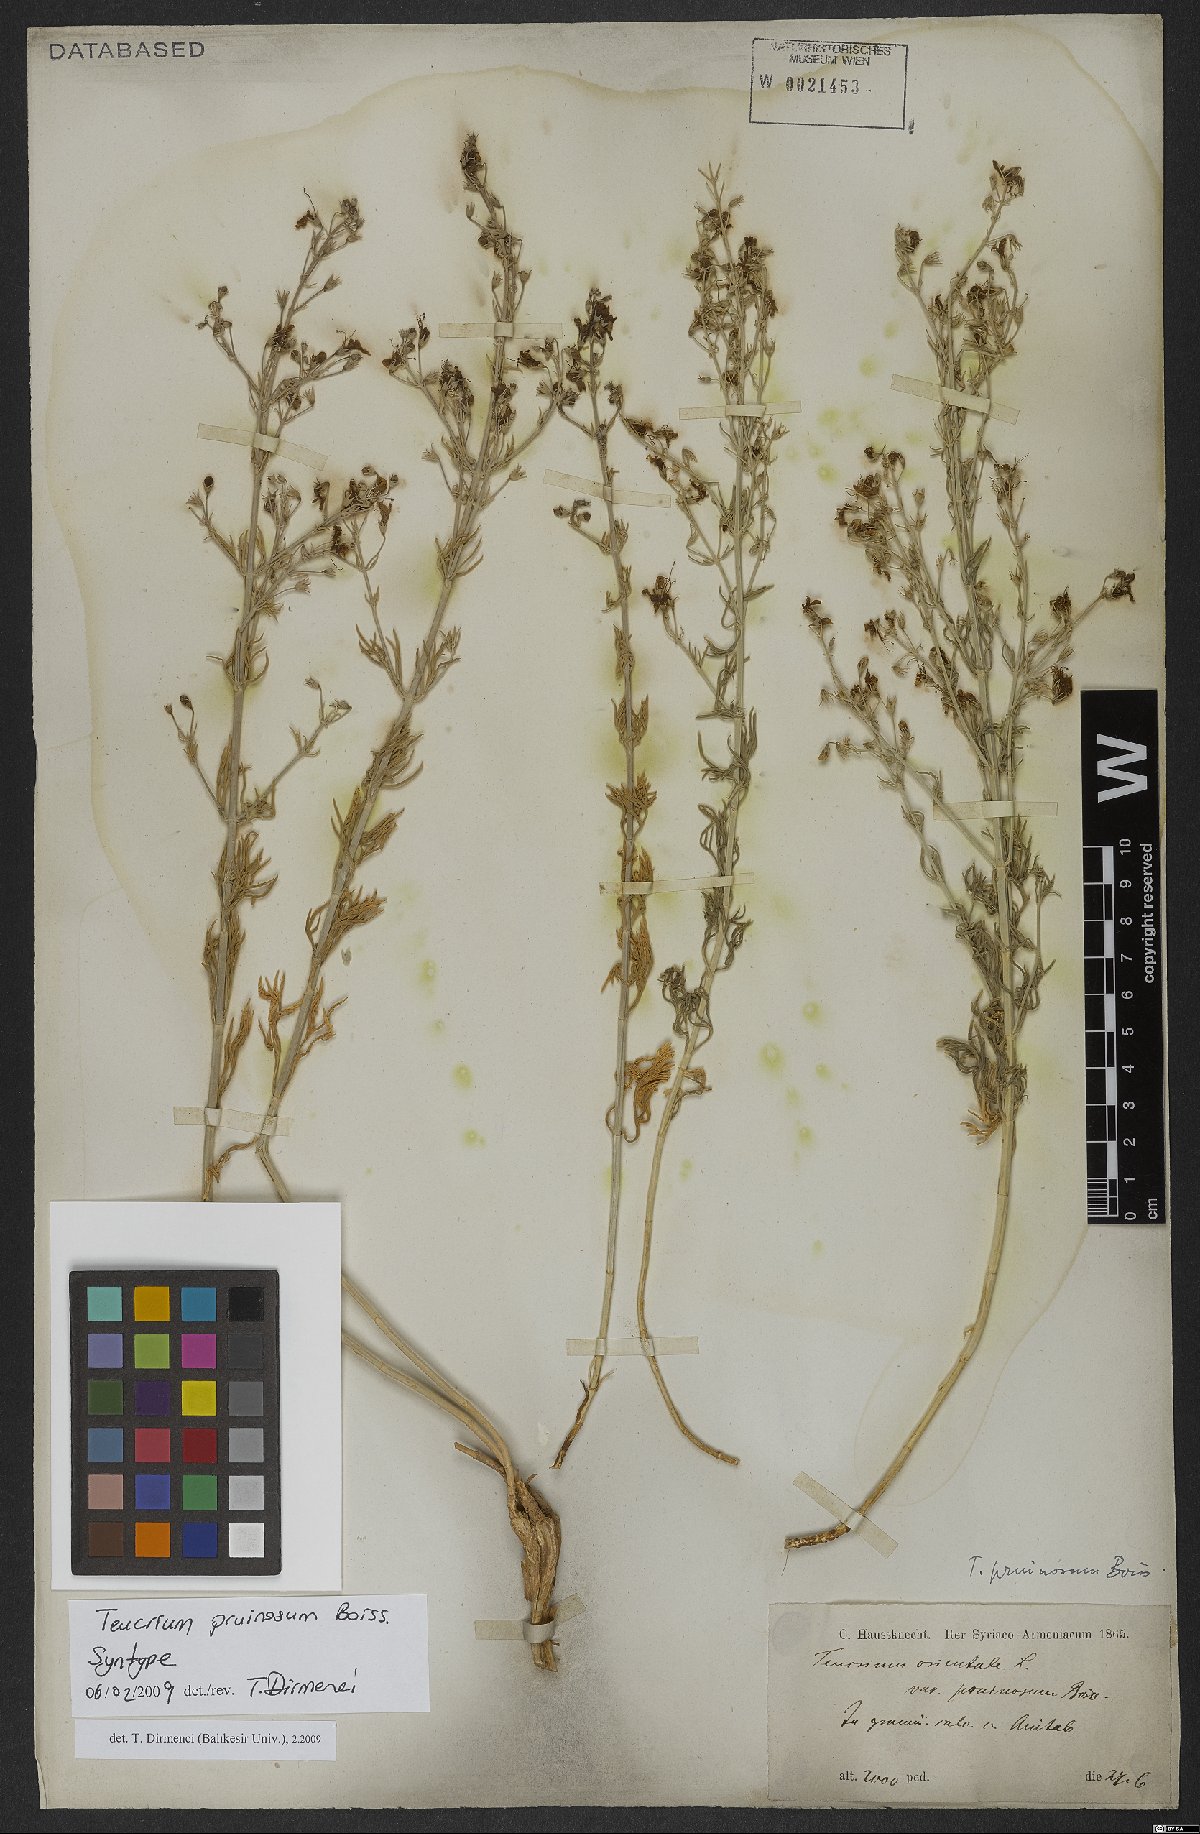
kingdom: Plantae
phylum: Tracheophyta
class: Magnoliopsida
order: Lamiales
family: Lamiaceae
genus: Teucrium
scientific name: Teucrium pruinosum
